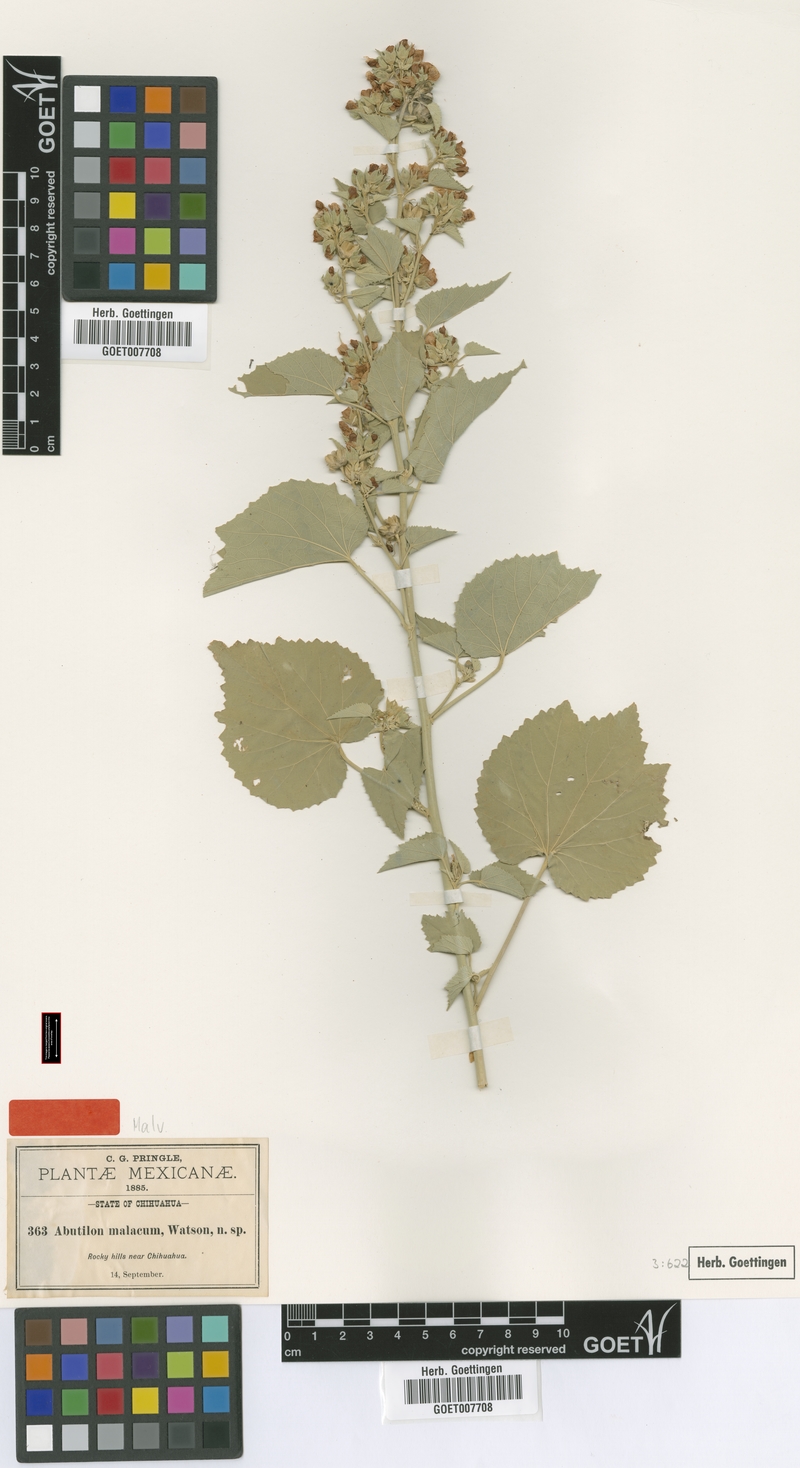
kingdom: Plantae
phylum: Tracheophyta
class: Magnoliopsida
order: Malvales
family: Malvaceae
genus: Abutilon
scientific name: Abutilon malacum
